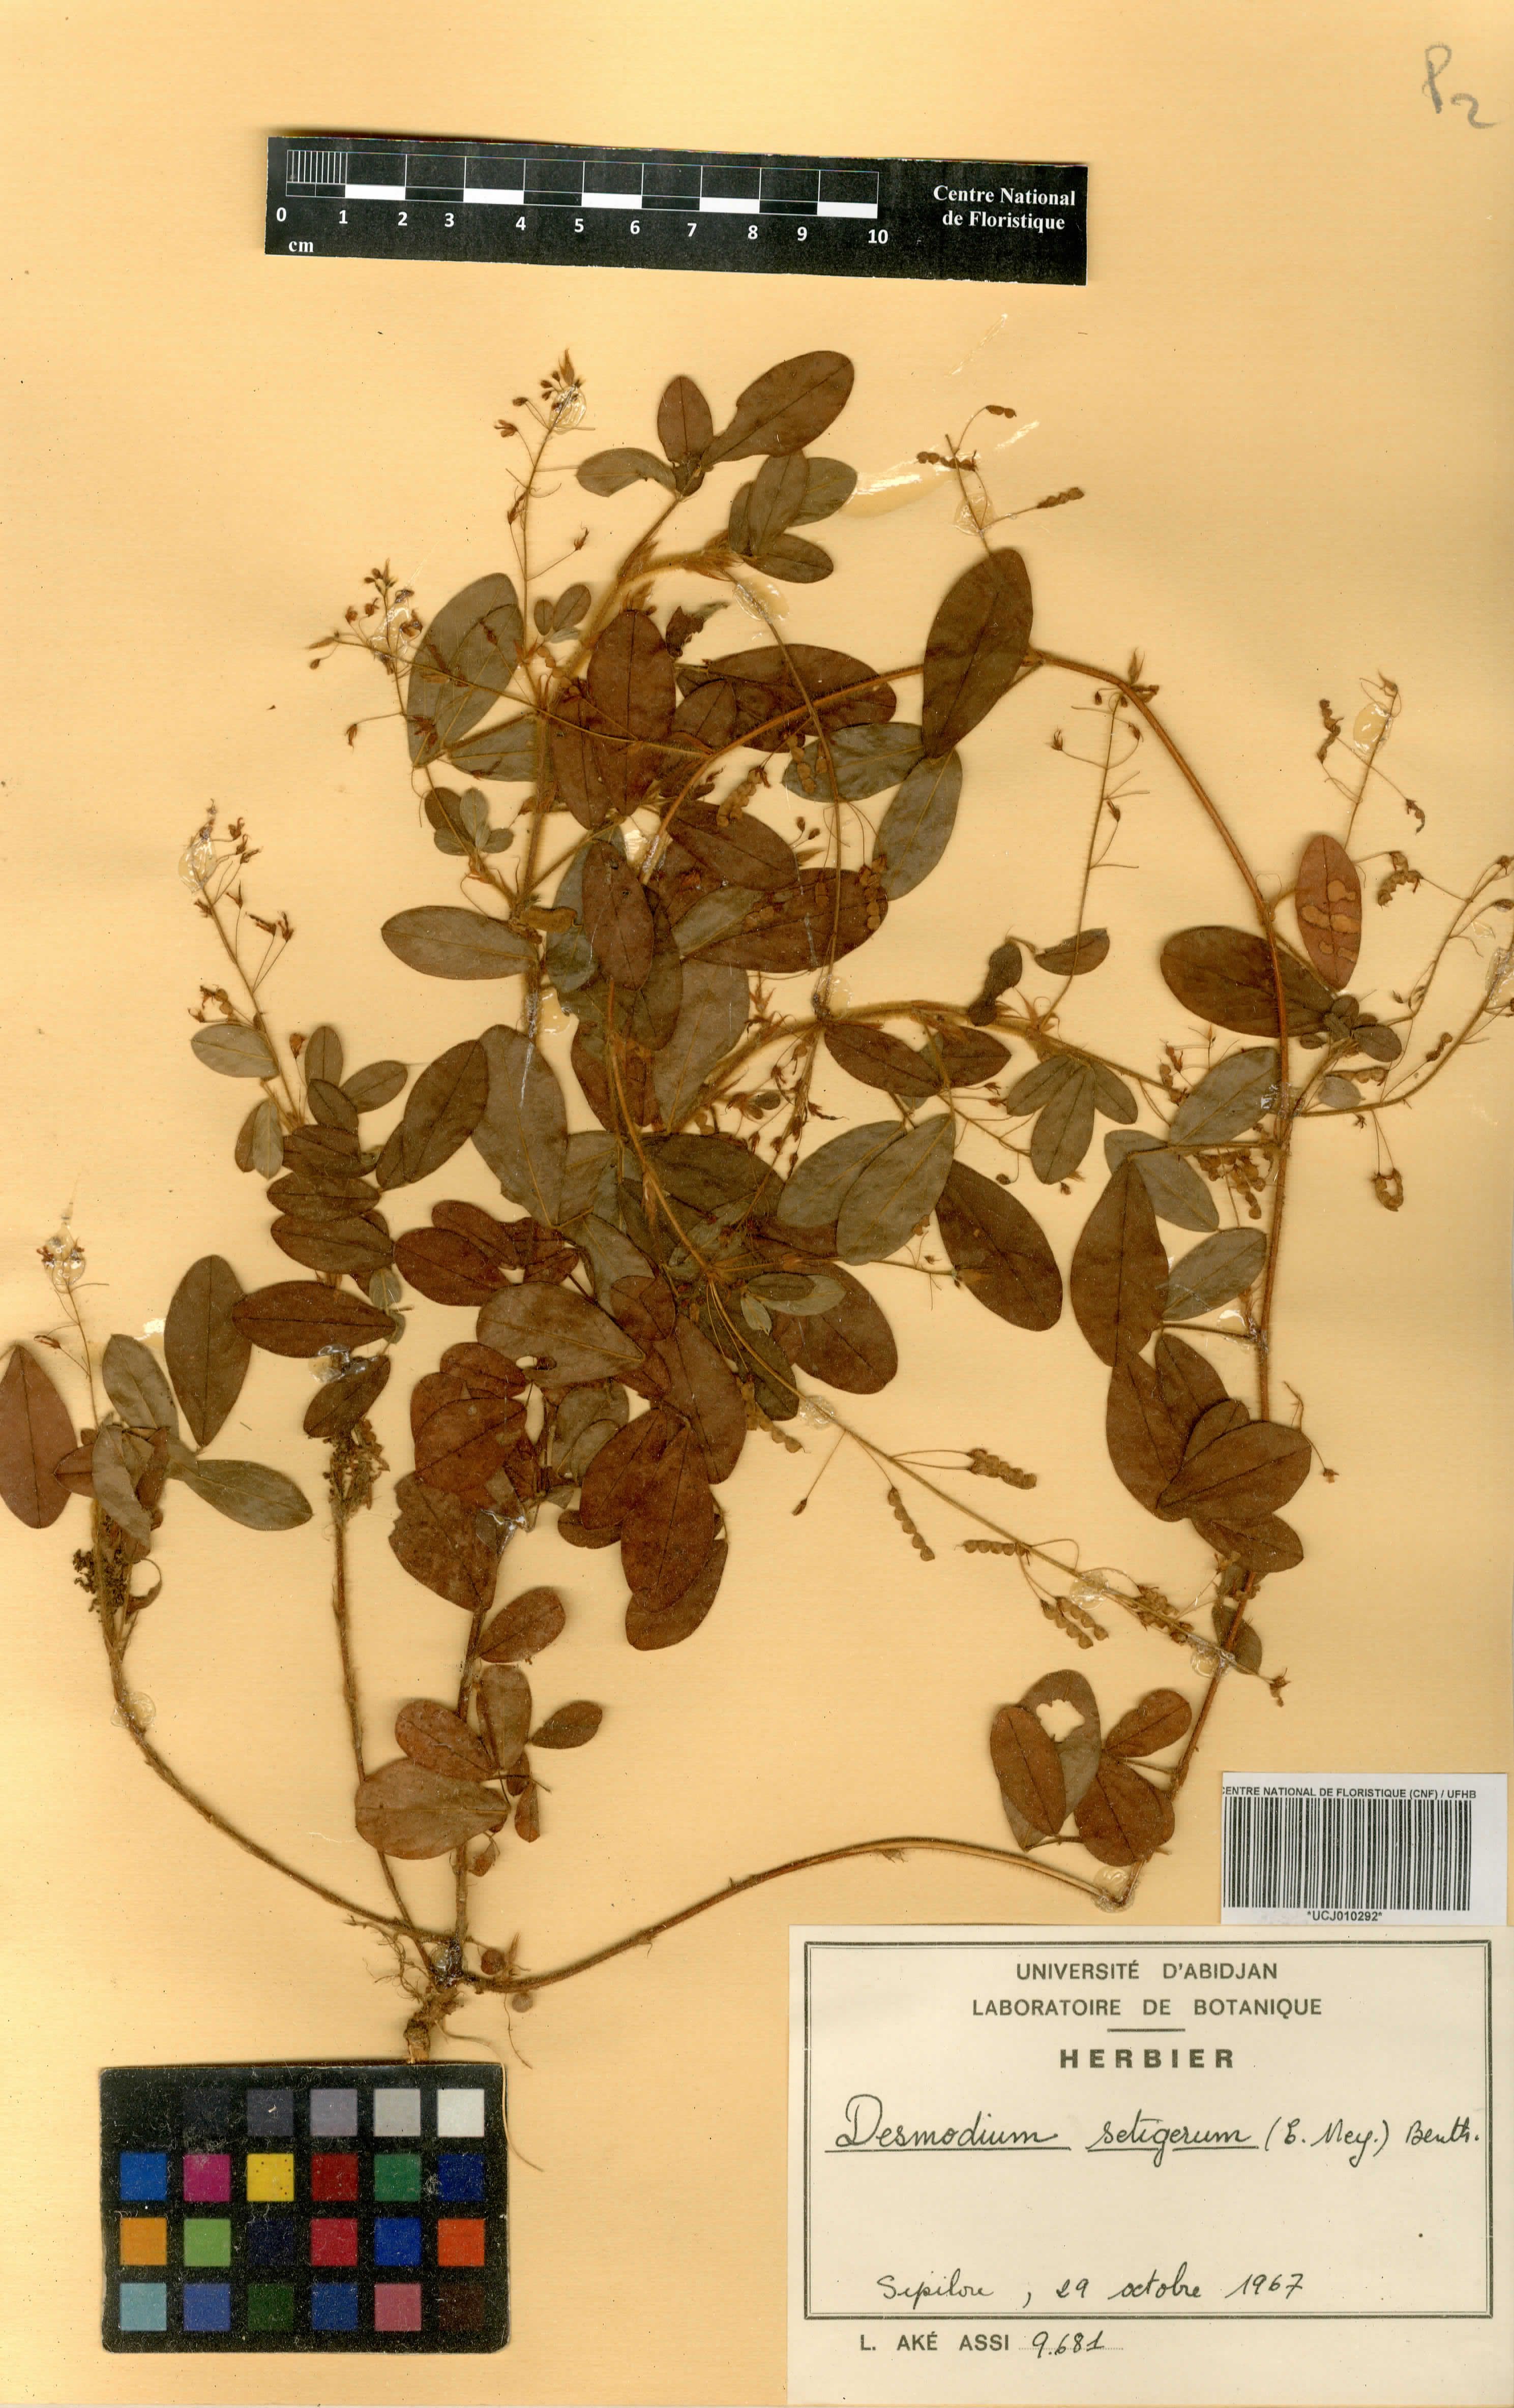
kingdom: Plantae
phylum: Tracheophyta
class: Magnoliopsida
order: Fabales
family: Fabaceae
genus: Grona
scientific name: Grona setigera
